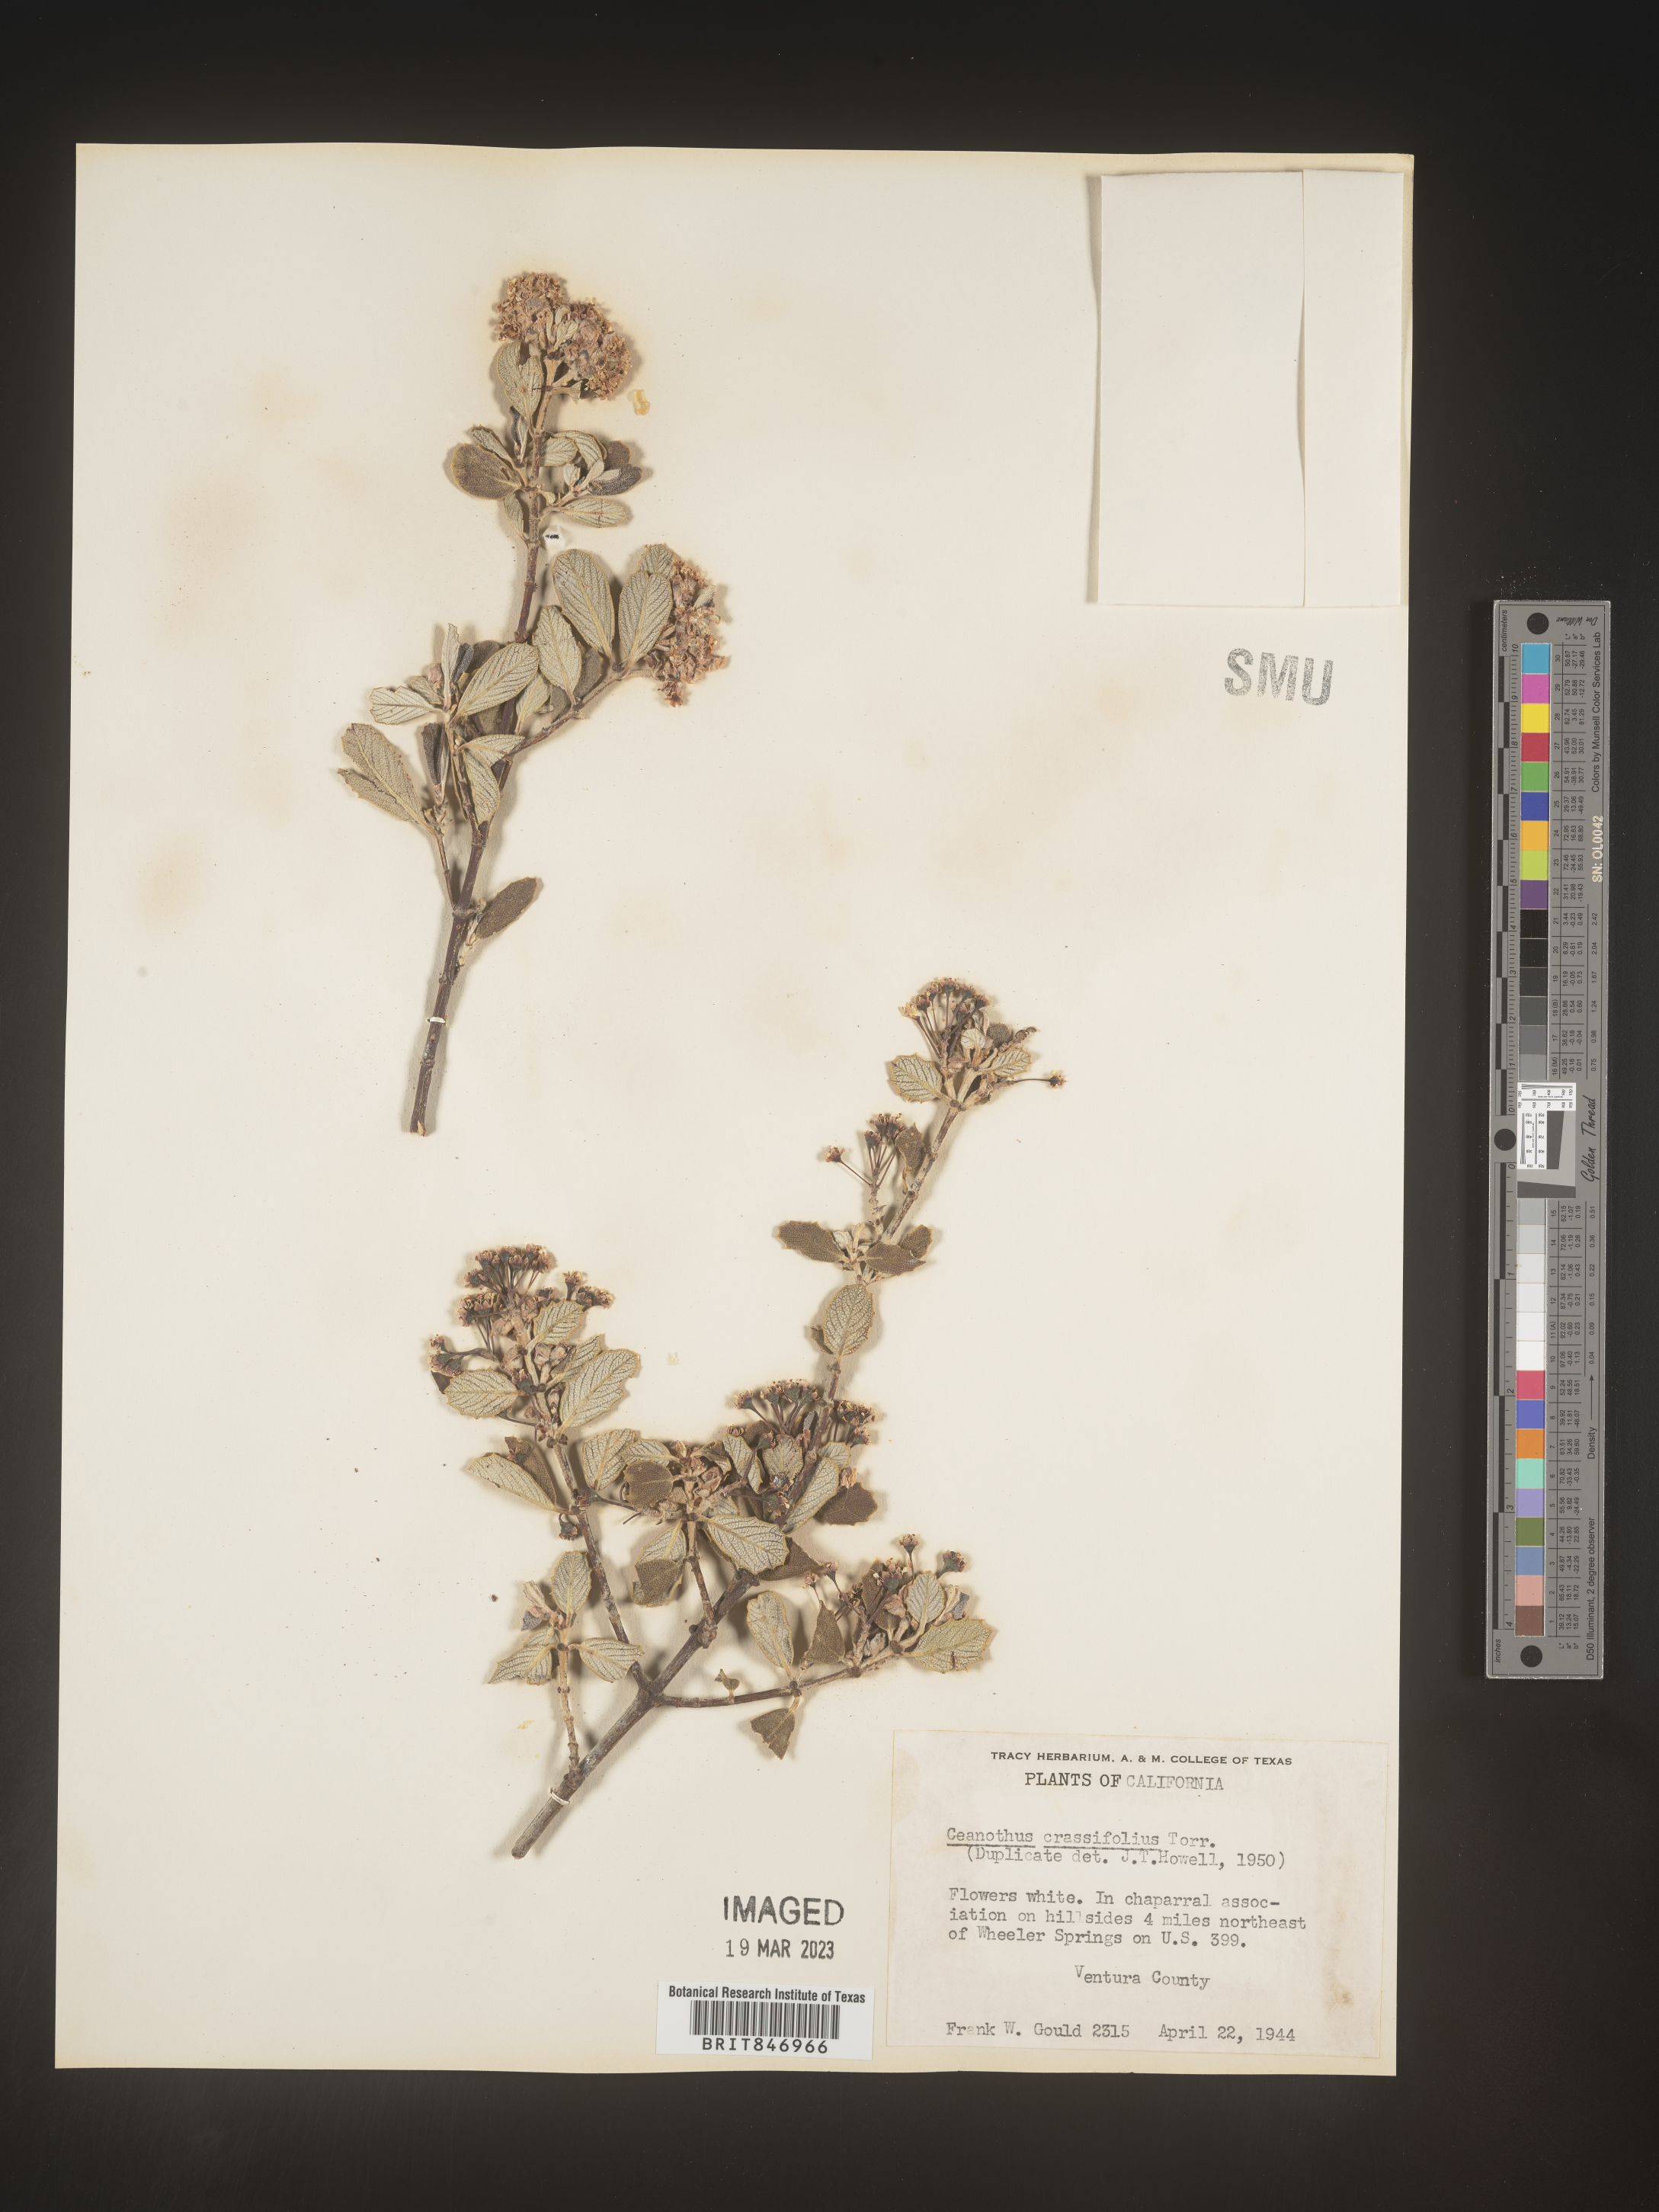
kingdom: Plantae
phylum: Tracheophyta
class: Magnoliopsida
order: Rosales
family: Rhamnaceae
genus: Ceanothus
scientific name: Ceanothus crassifolius
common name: Hoaryleaf ceanothus
